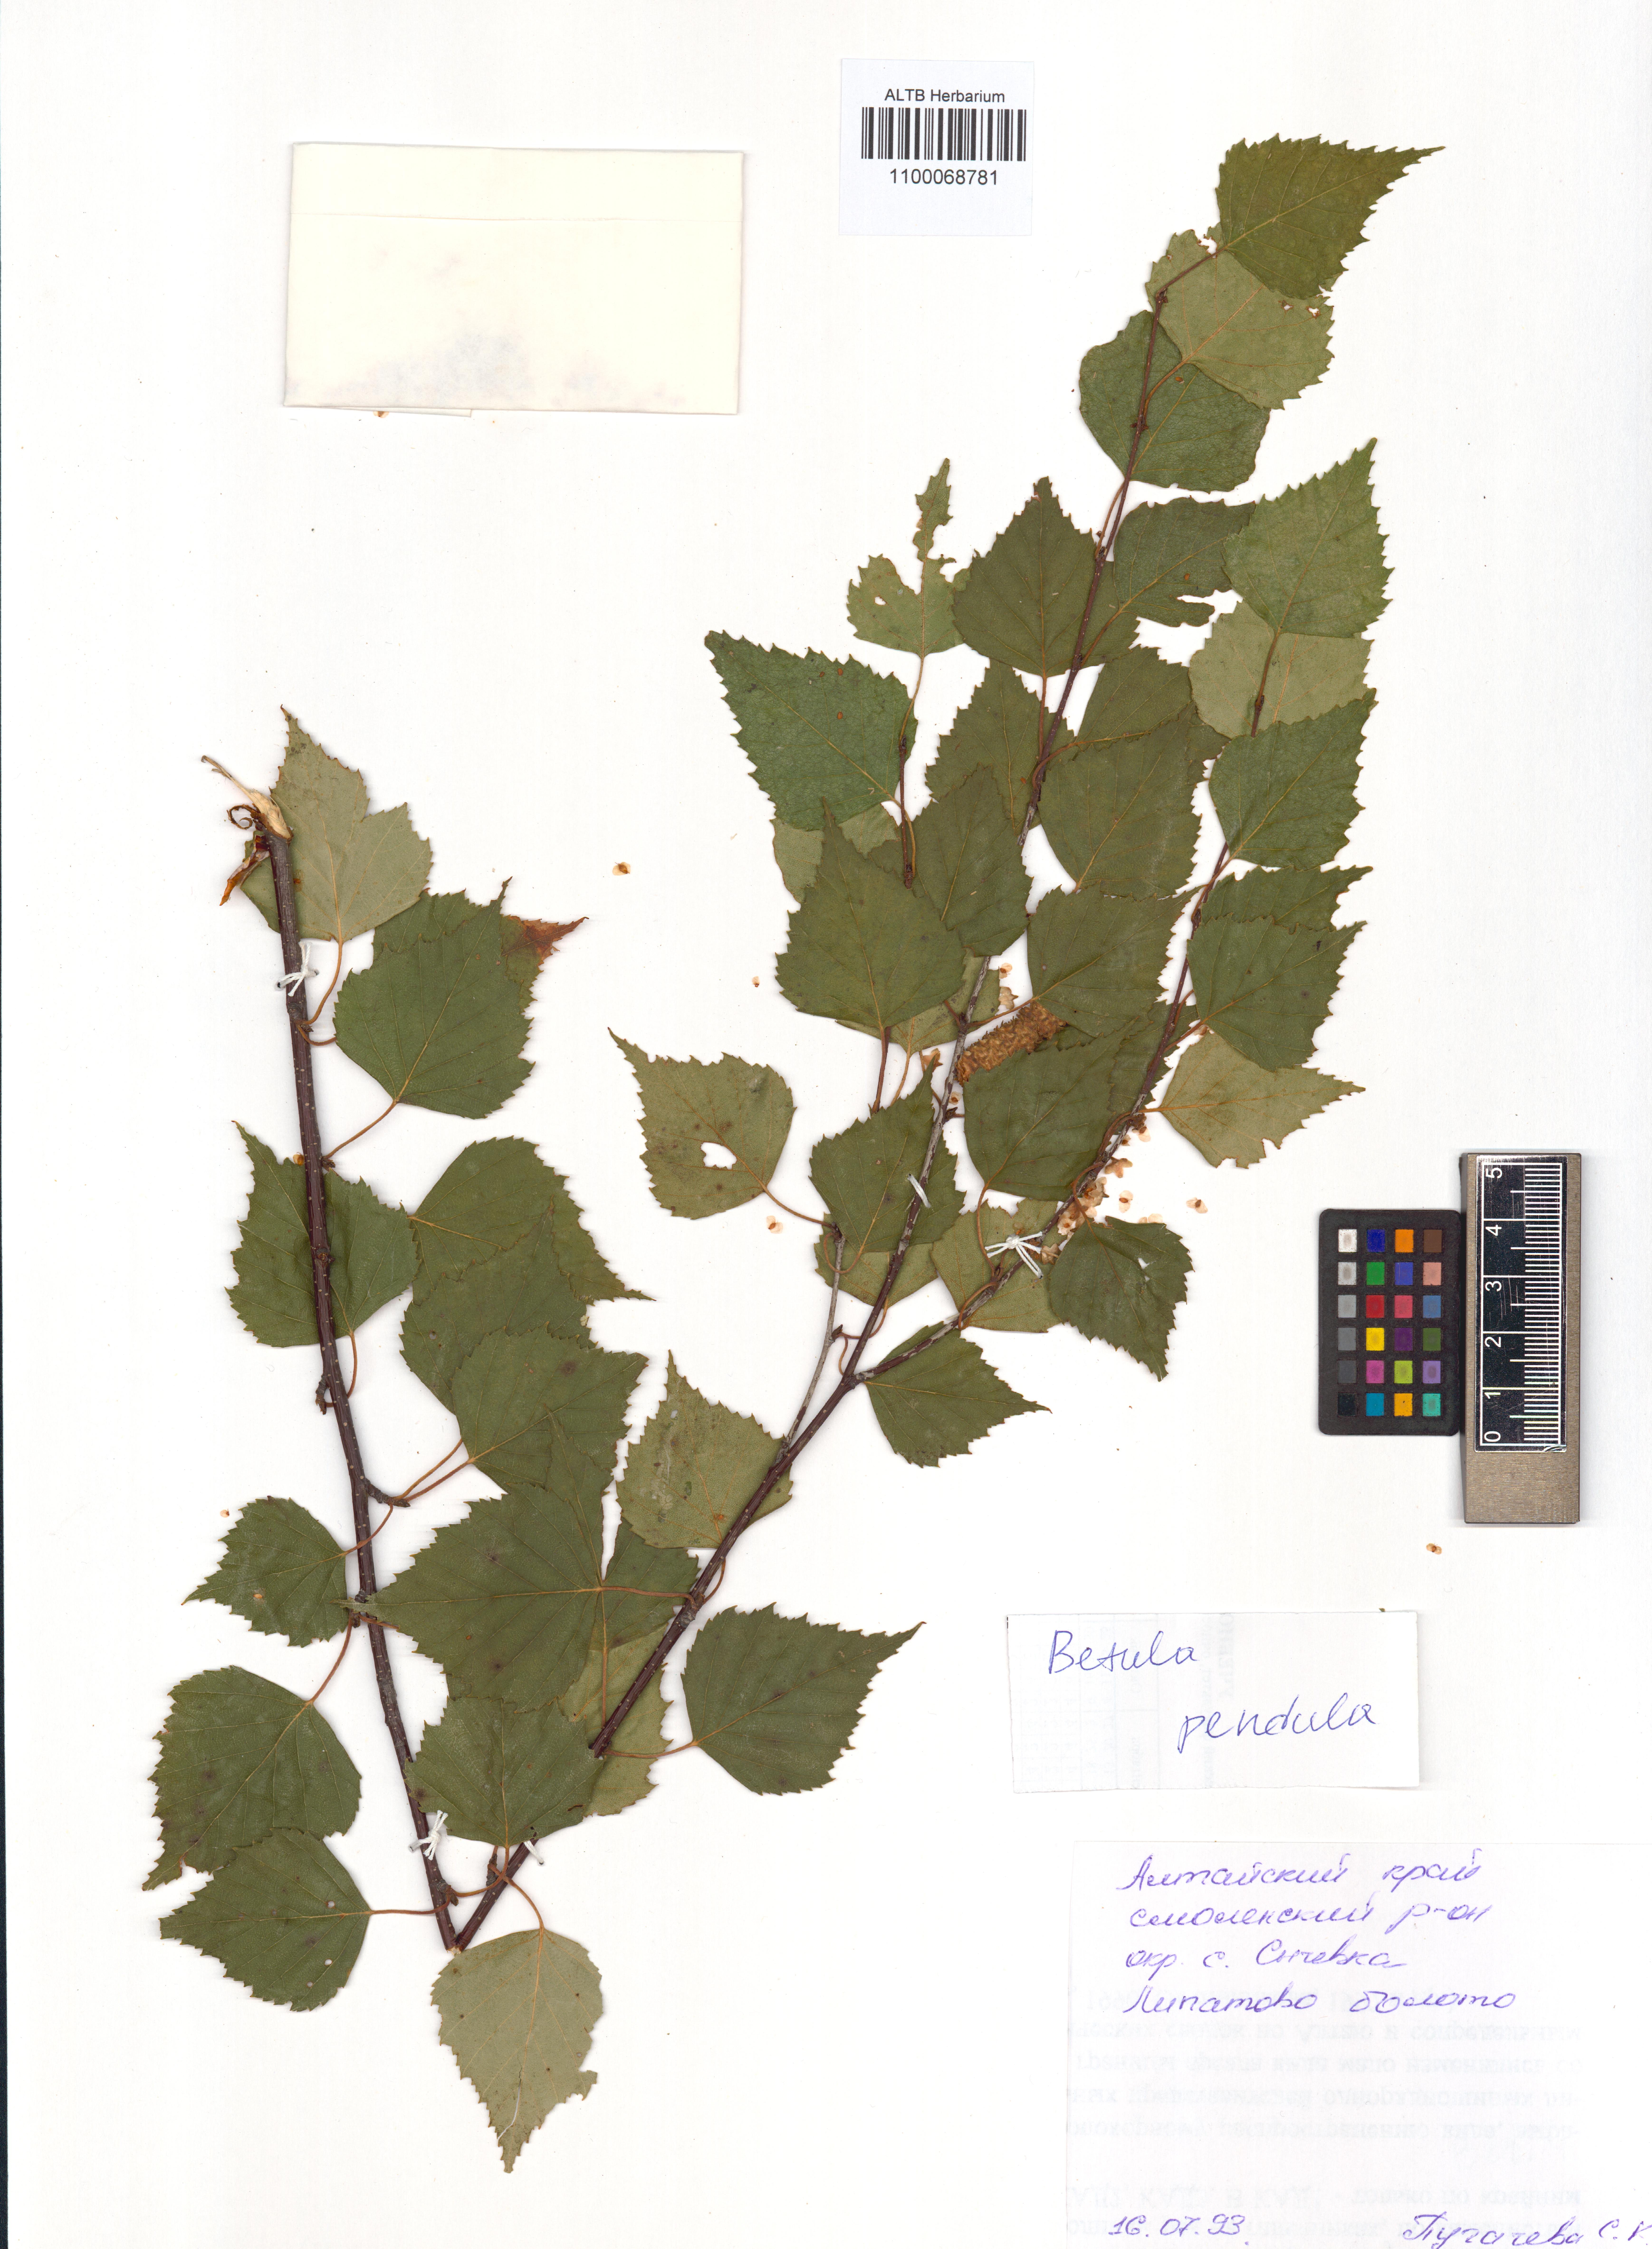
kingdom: Plantae
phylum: Tracheophyta
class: Magnoliopsida
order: Fagales
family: Betulaceae
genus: Betula
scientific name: Betula pendula
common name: Silver birch
